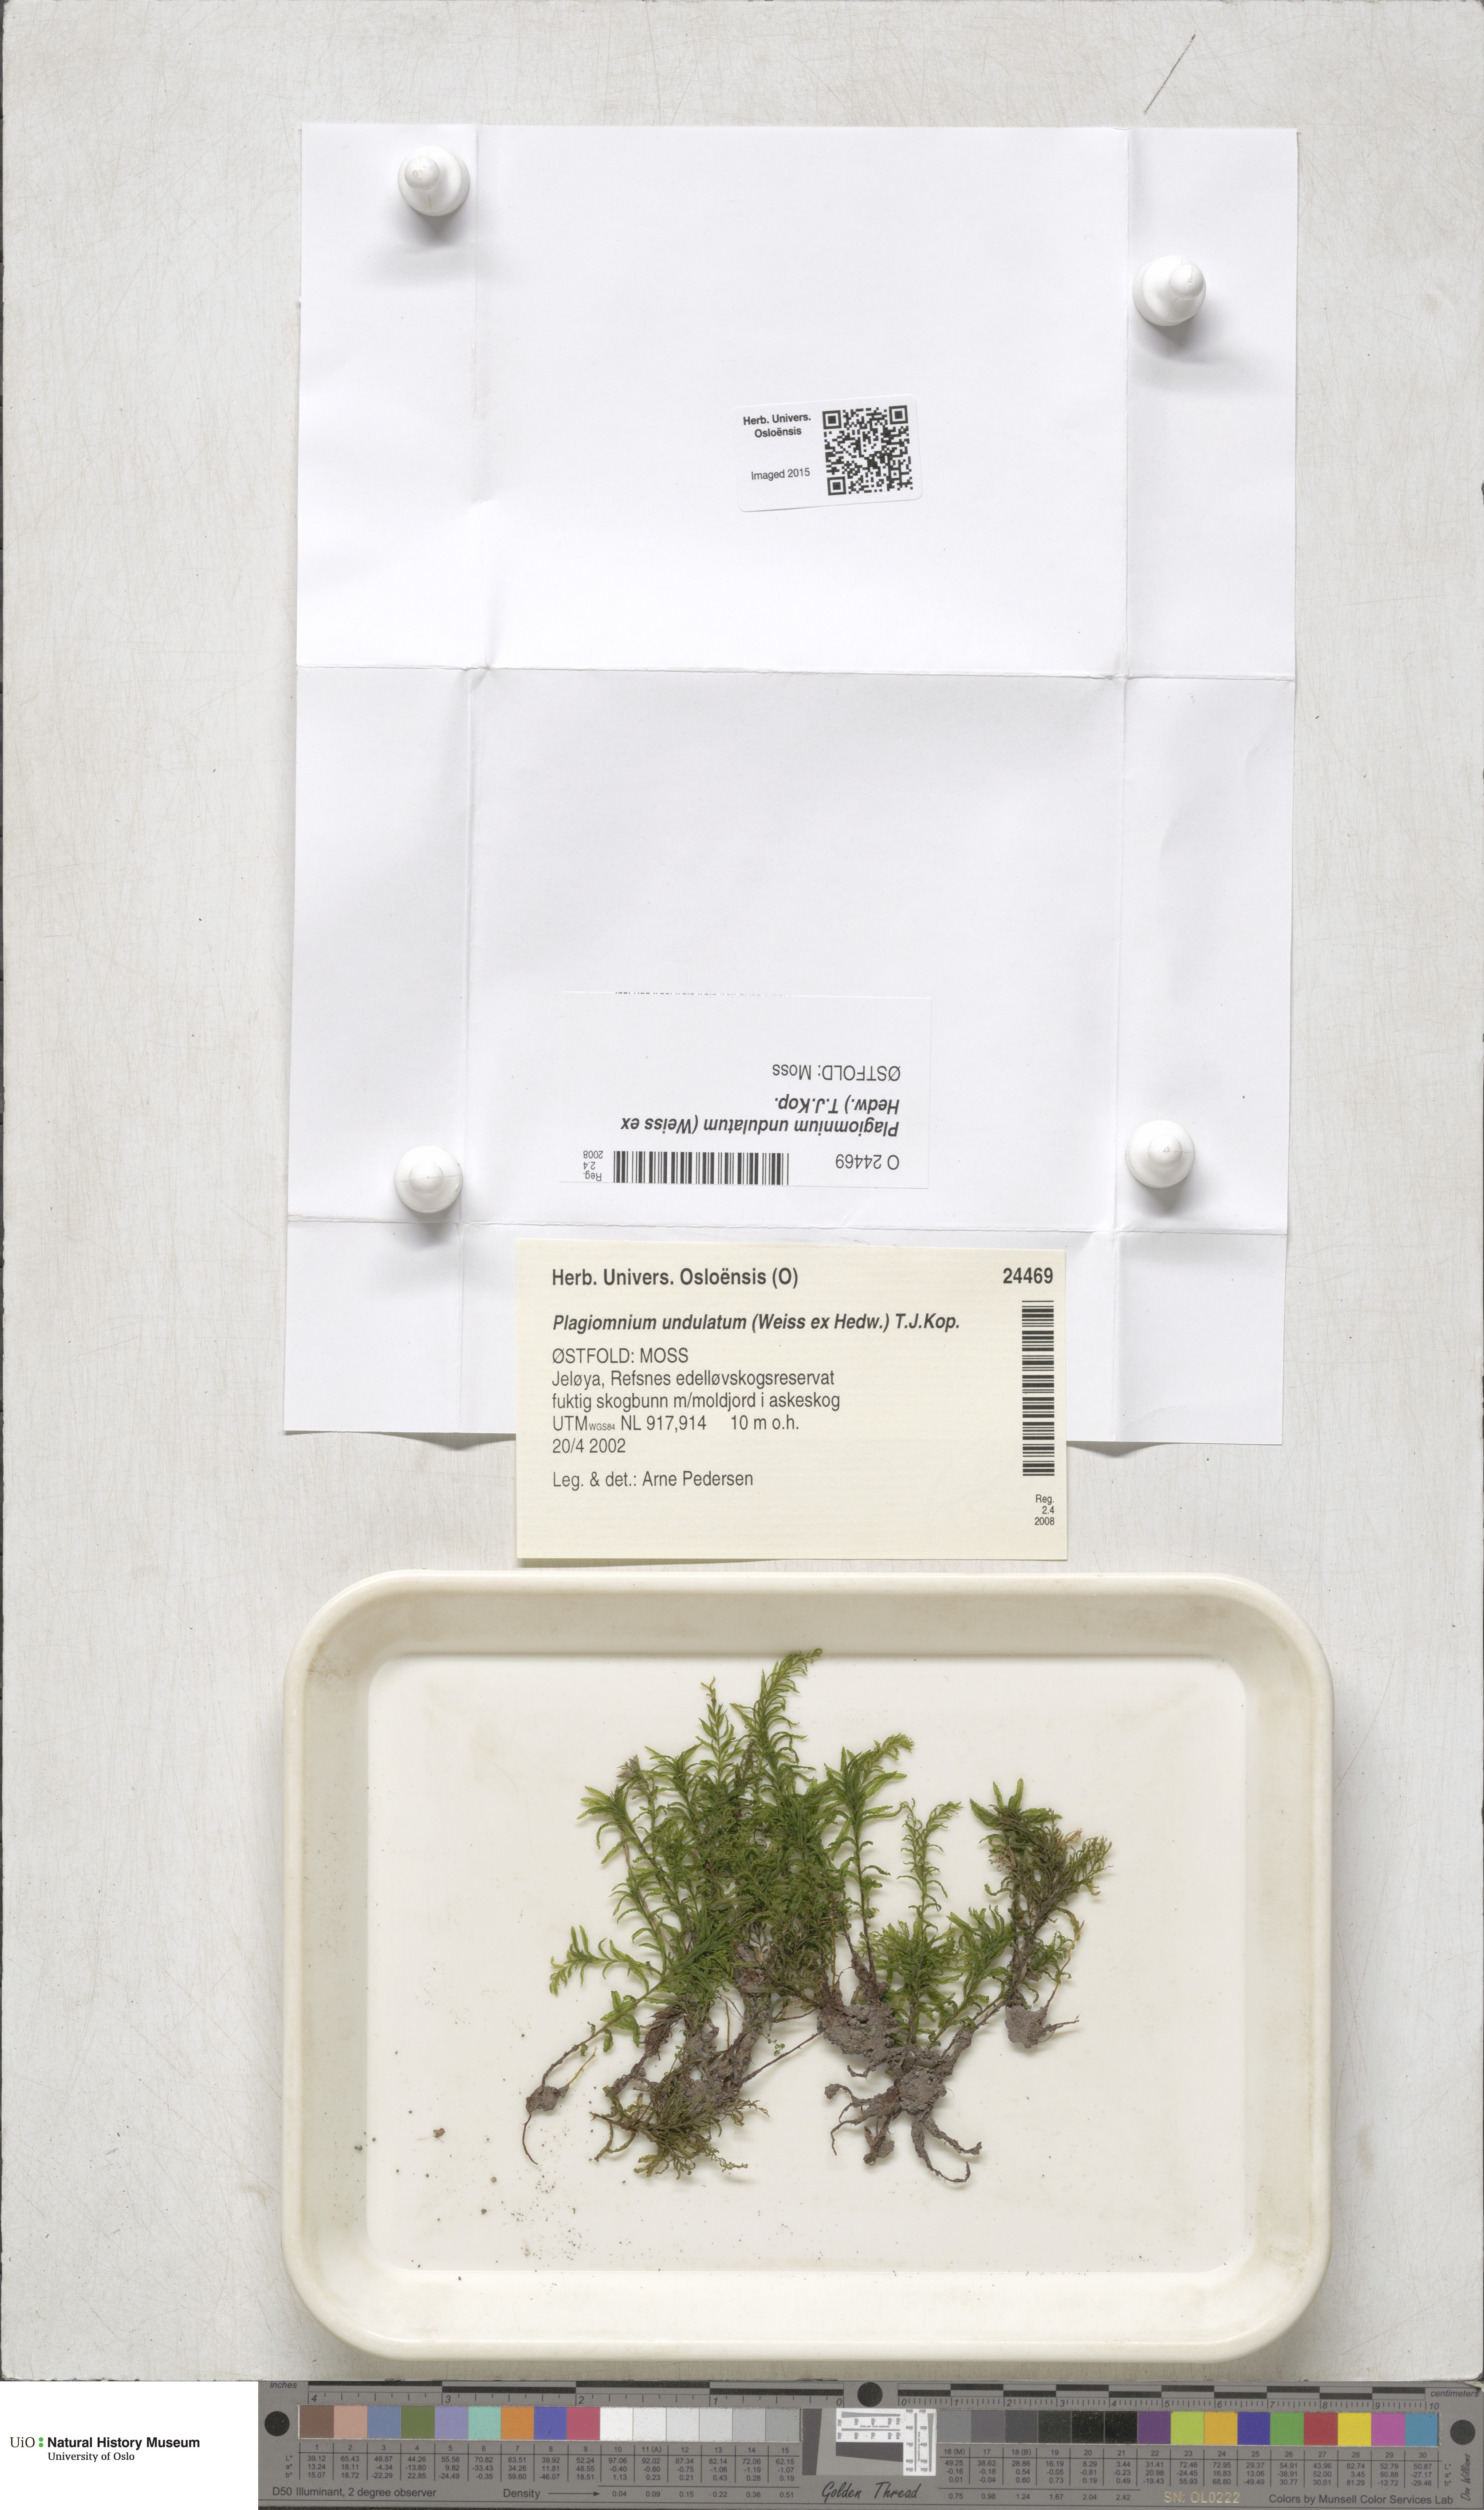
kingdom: Plantae
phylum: Bryophyta
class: Bryopsida
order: Bryales
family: Mniaceae
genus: Plagiomnium
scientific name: Plagiomnium undulatum
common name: Hart's-tongue thyme-moss
